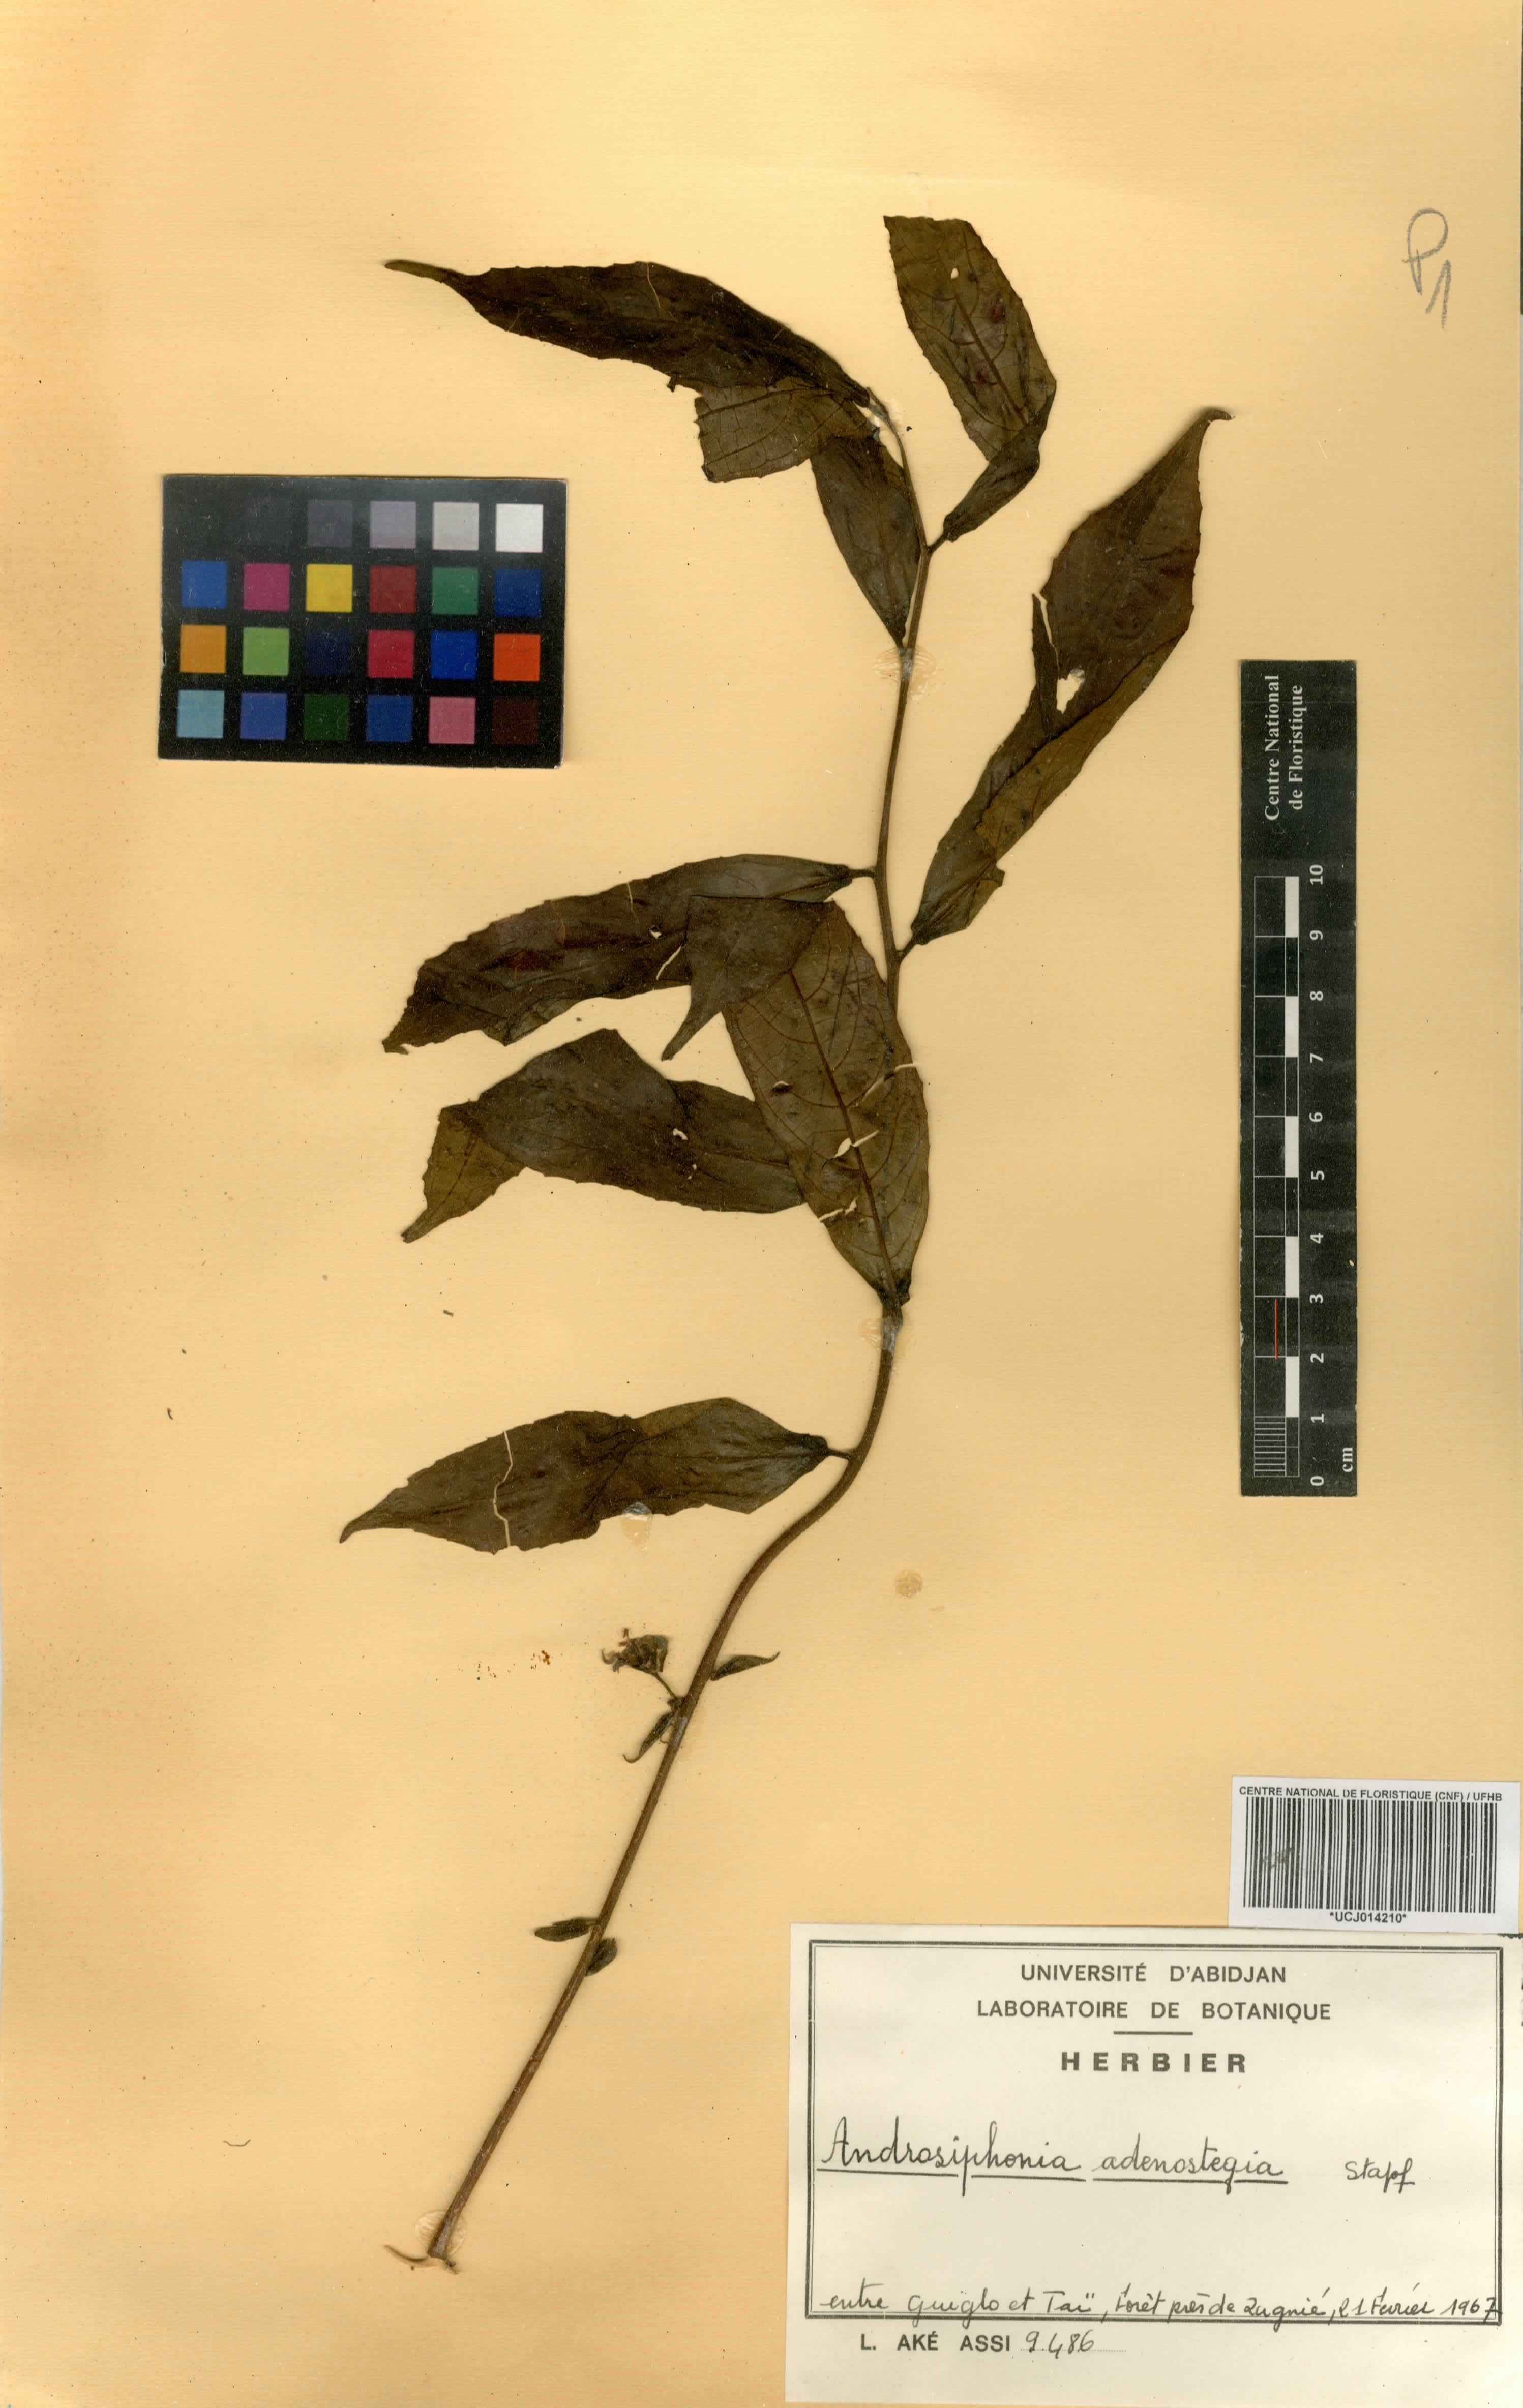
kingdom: Plantae
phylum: Tracheophyta
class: Magnoliopsida
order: Malpighiales
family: Passifloraceae
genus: Androsiphonia
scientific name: Androsiphonia adenostegia
